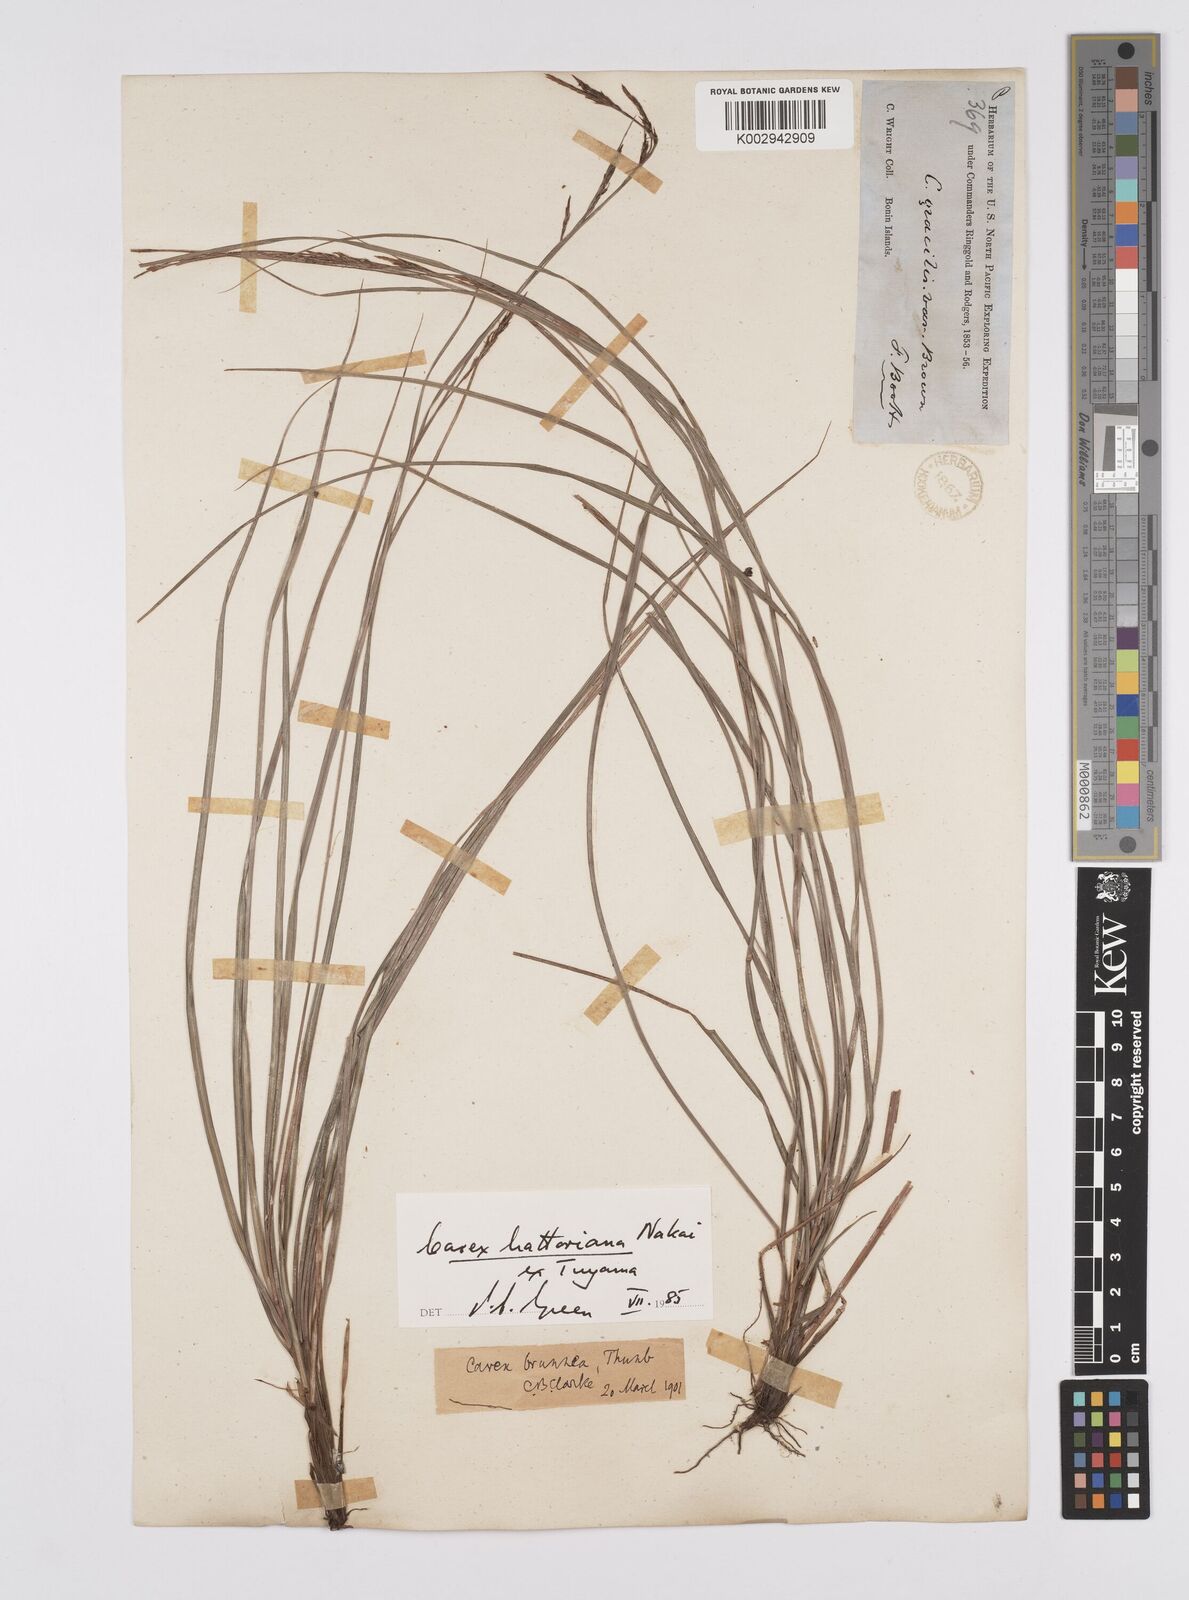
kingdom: Plantae
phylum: Tracheophyta
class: Liliopsida
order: Poales
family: Cyperaceae
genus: Carex
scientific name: Carex hattoriana
